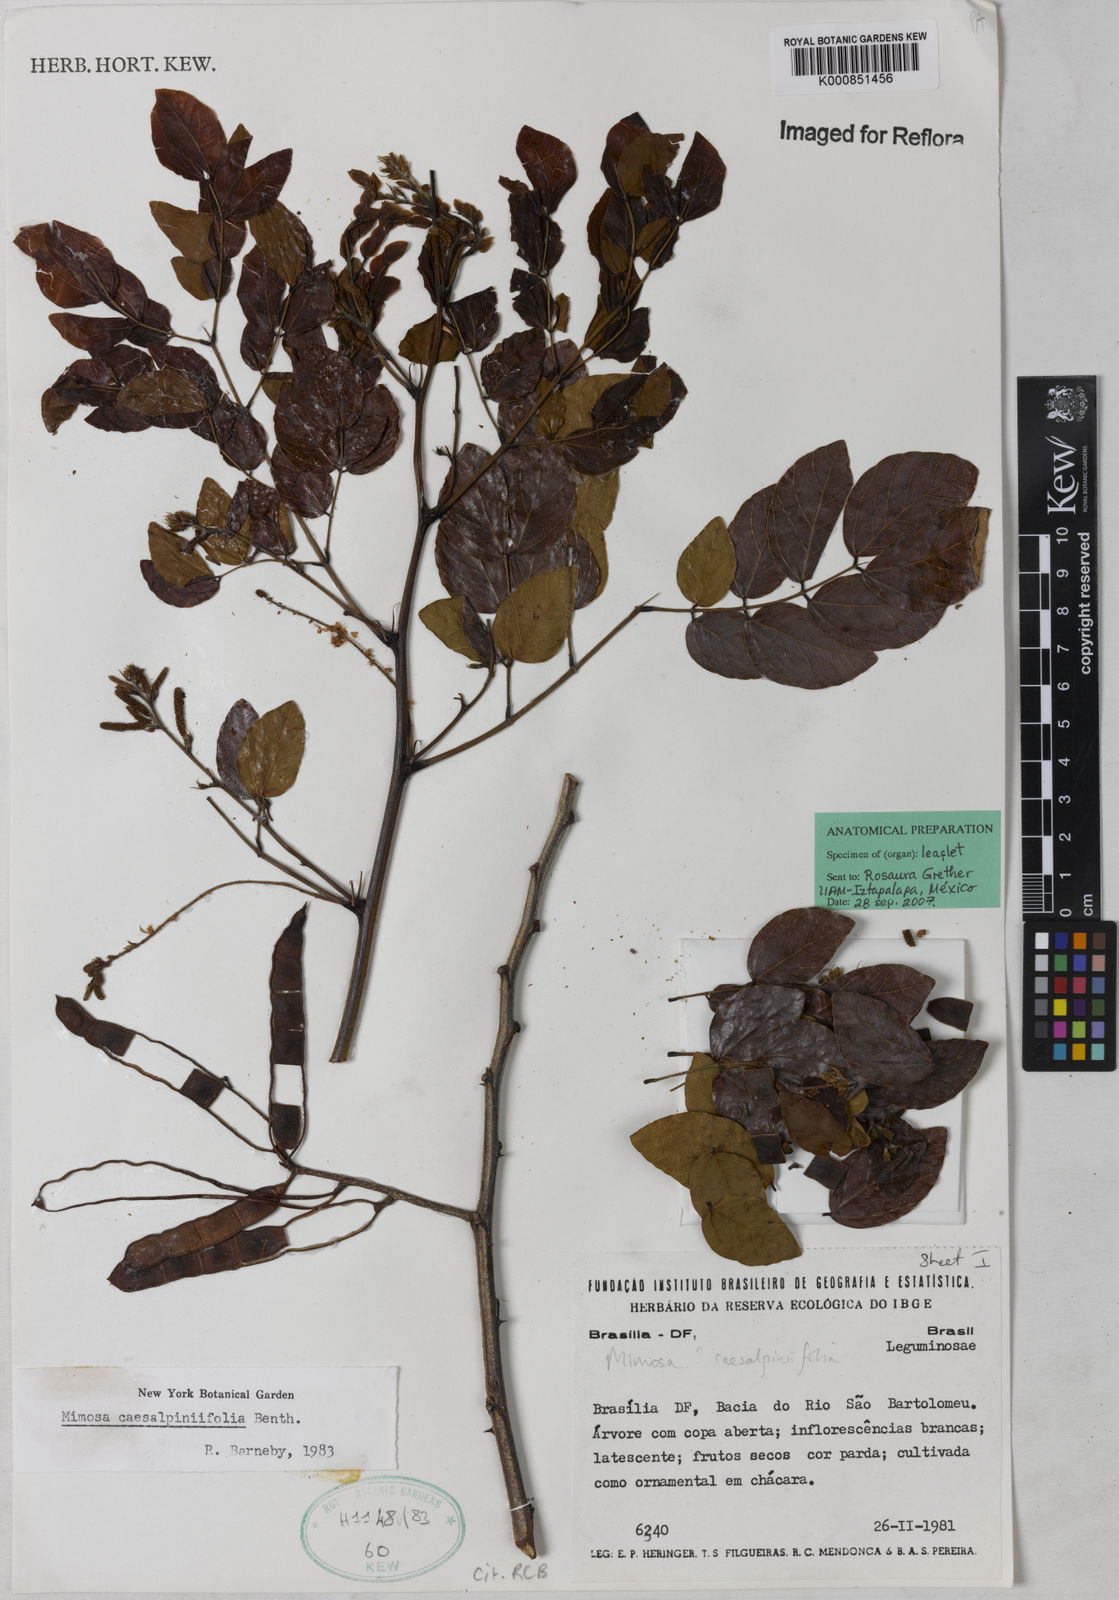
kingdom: Plantae
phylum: Tracheophyta
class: Magnoliopsida
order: Fabales
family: Fabaceae
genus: Mimosa
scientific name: Mimosa caesalpiniifolia
